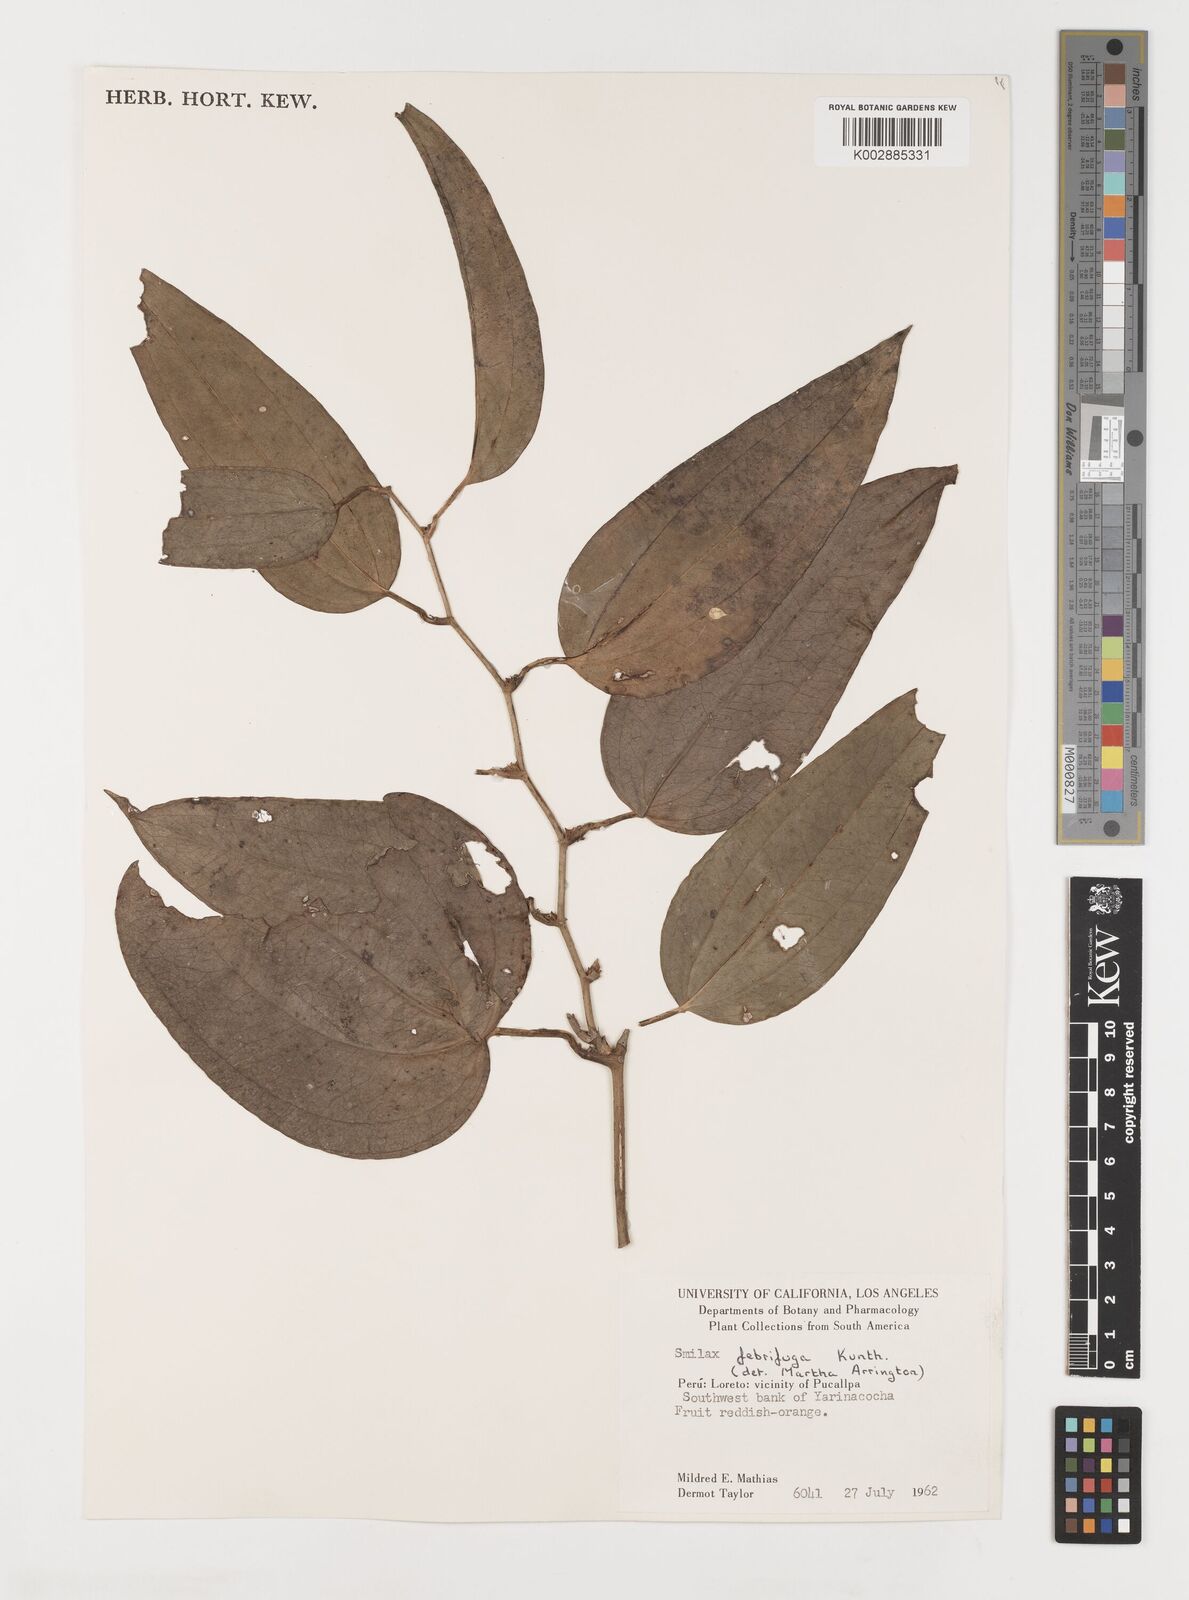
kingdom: Plantae
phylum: Tracheophyta
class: Liliopsida
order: Liliales
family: Smilacaceae
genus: Smilax
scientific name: Smilax purhampuy
